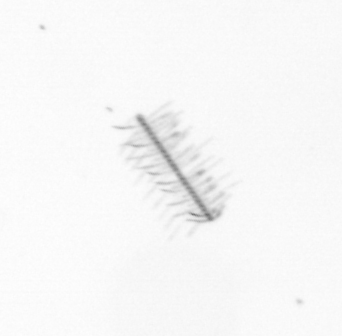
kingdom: Chromista
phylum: Ochrophyta
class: Bacillariophyceae
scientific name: Bacillariophyceae
